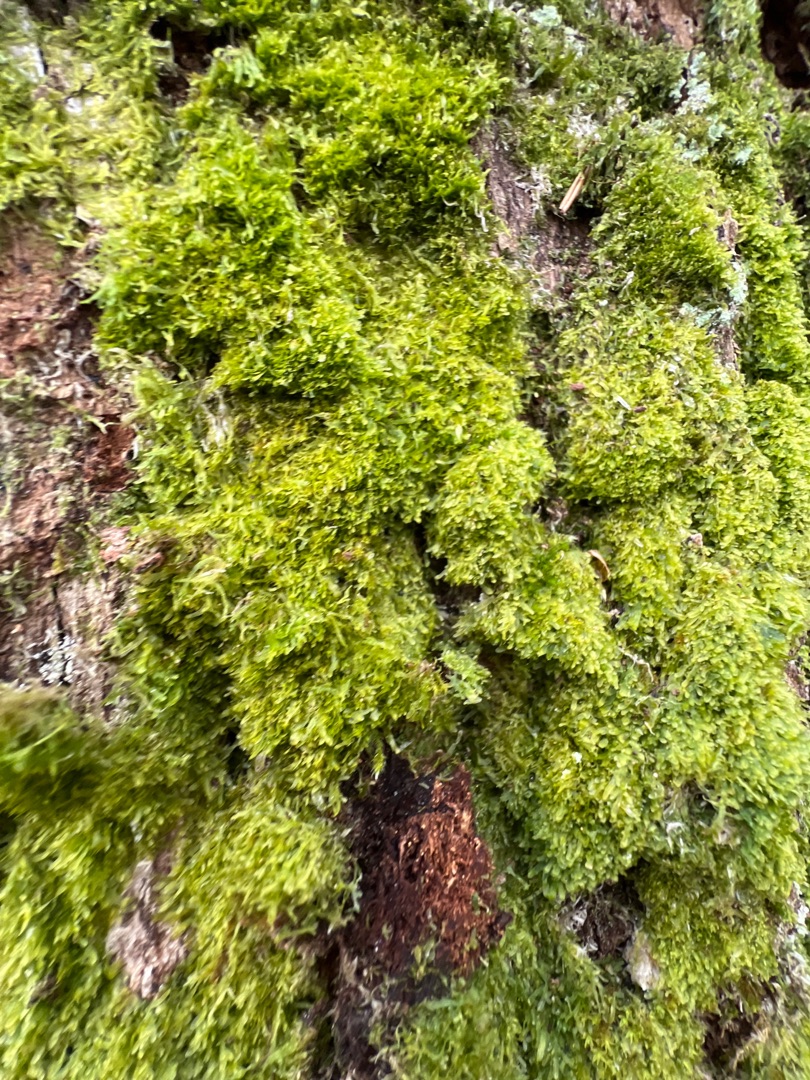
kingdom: Plantae
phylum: Marchantiophyta
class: Jungermanniopsida
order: Metzgeriales
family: Metzgeriaceae
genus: Metzgeria
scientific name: Metzgeria furcata
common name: Almindelig gaffelløv
